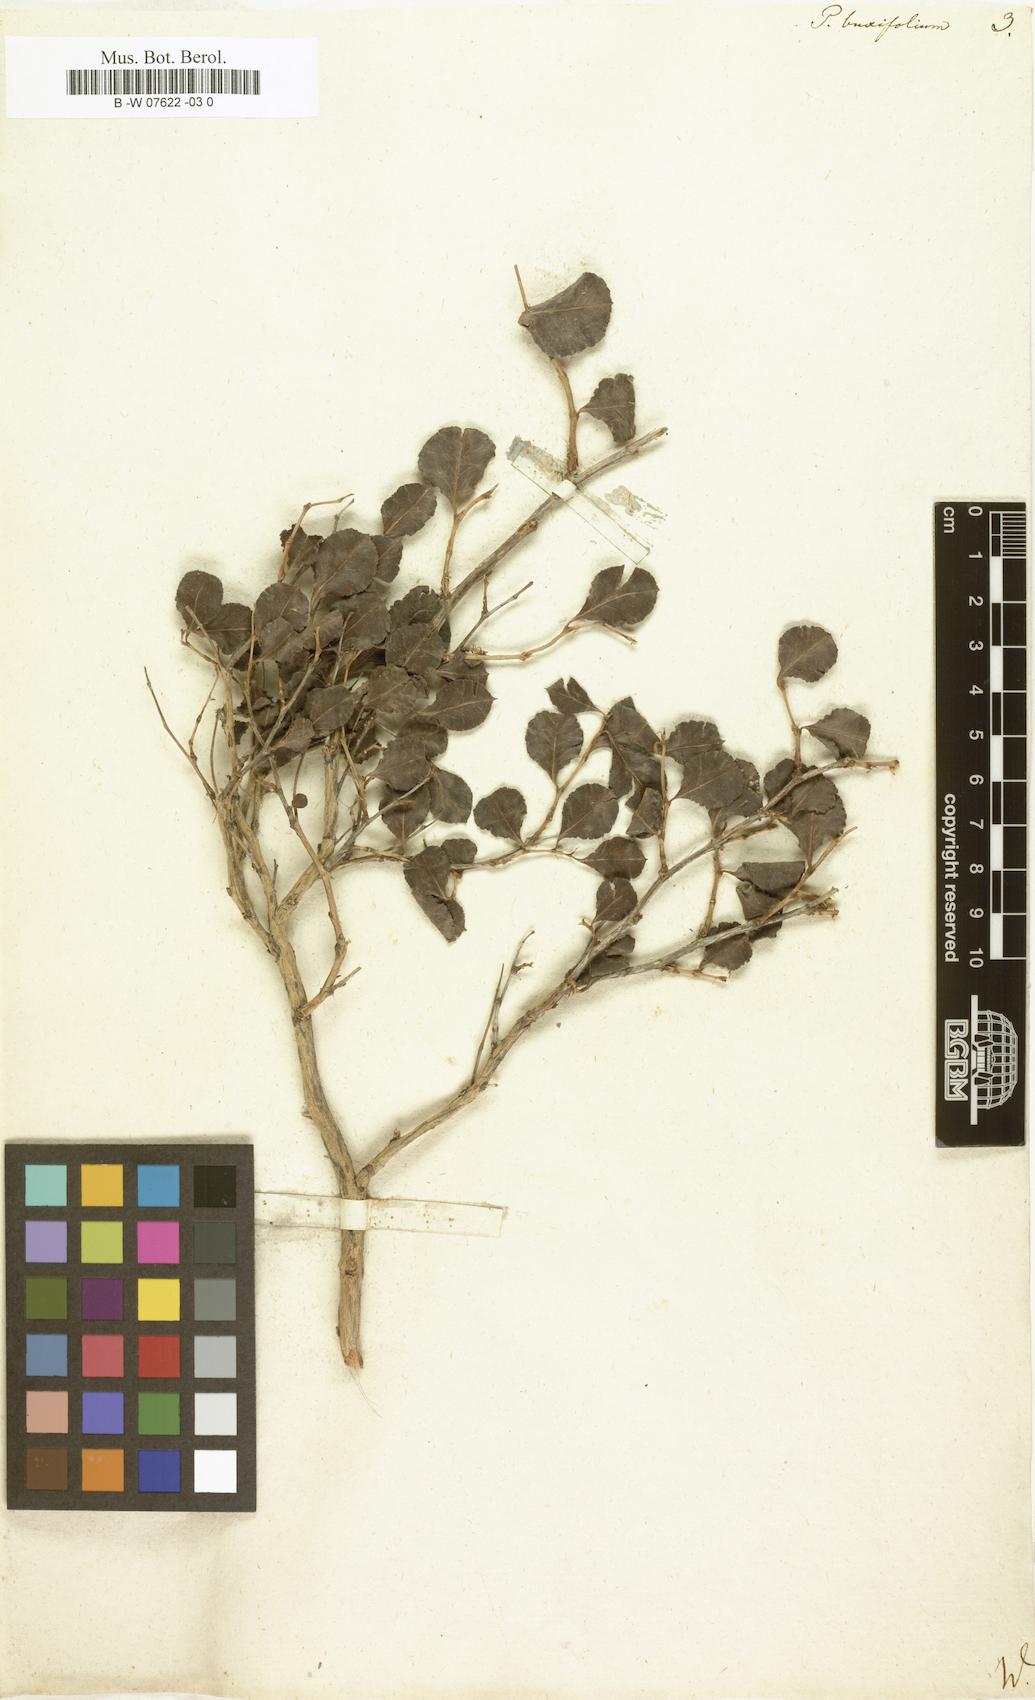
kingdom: Plantae
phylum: Tracheophyta
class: Magnoliopsida
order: Caryophyllales
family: Polygonaceae
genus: Polygonum
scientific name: Polygonum aviculare
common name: Prostrate knotweed
